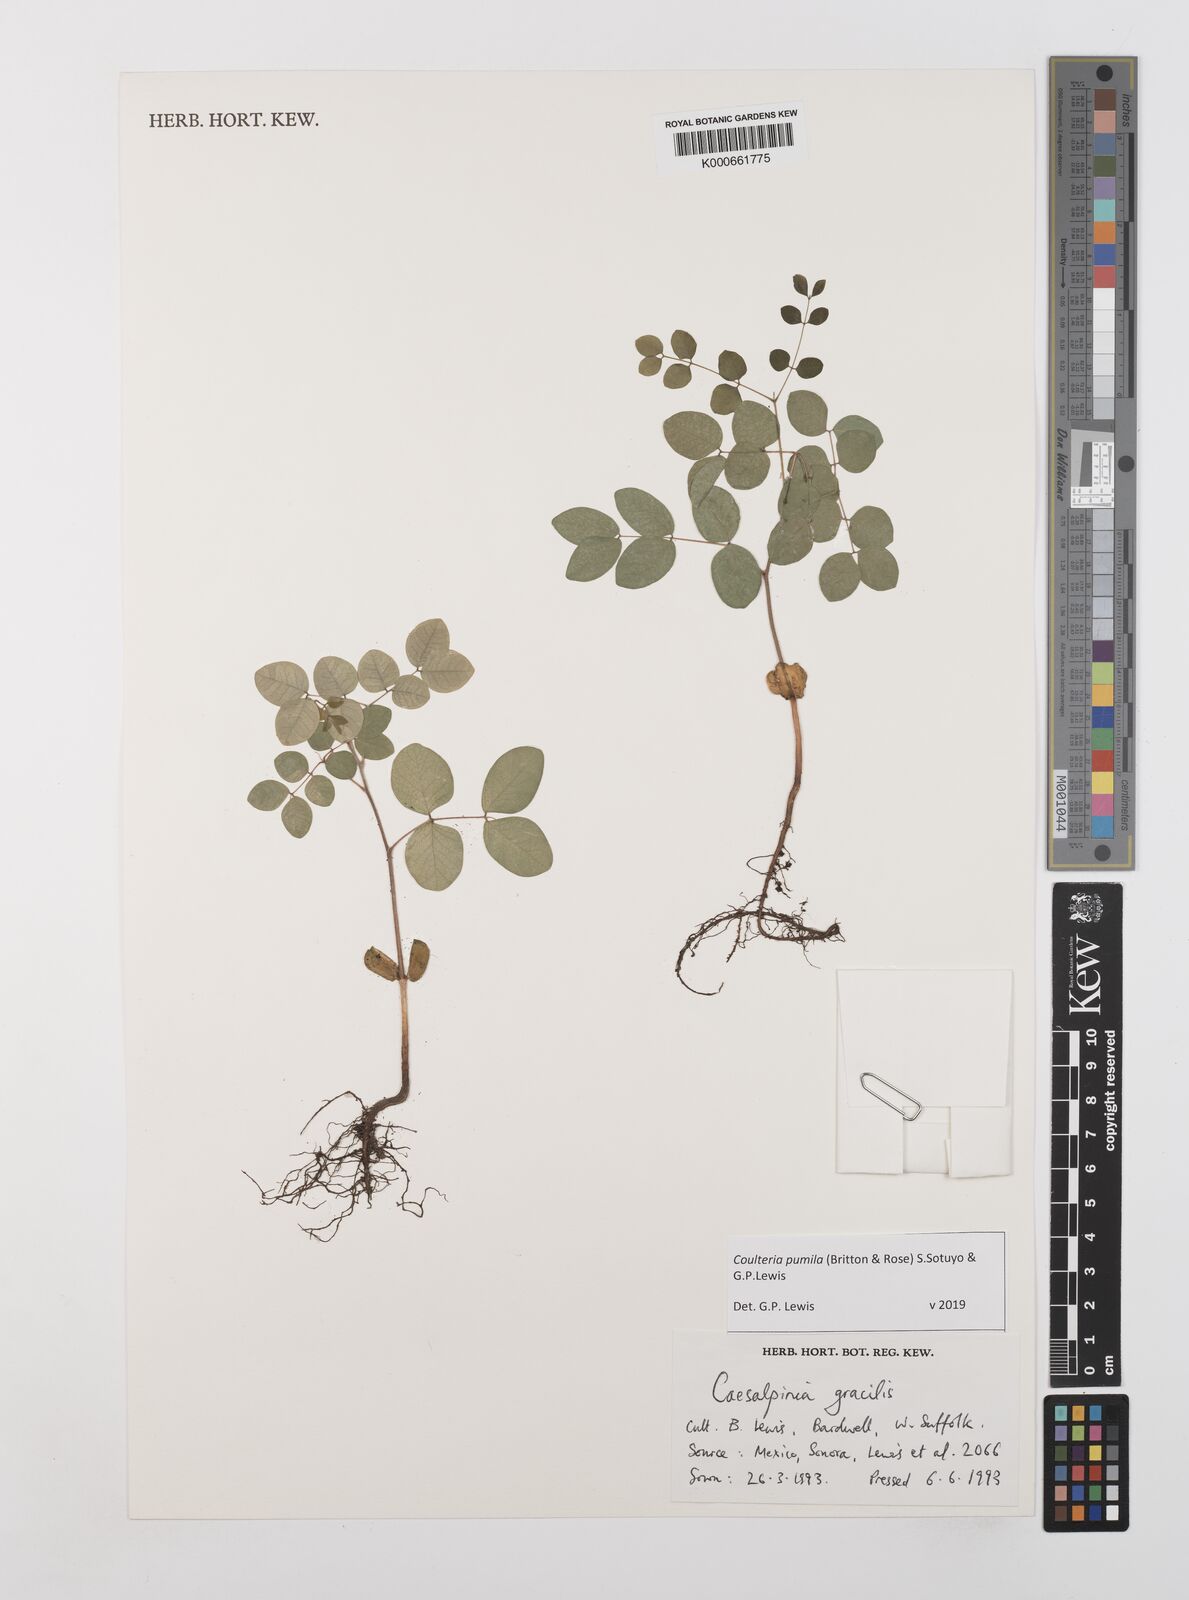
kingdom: Plantae
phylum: Tracheophyta
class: Magnoliopsida
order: Fabales
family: Fabaceae
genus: Coulteria
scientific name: Coulteria
